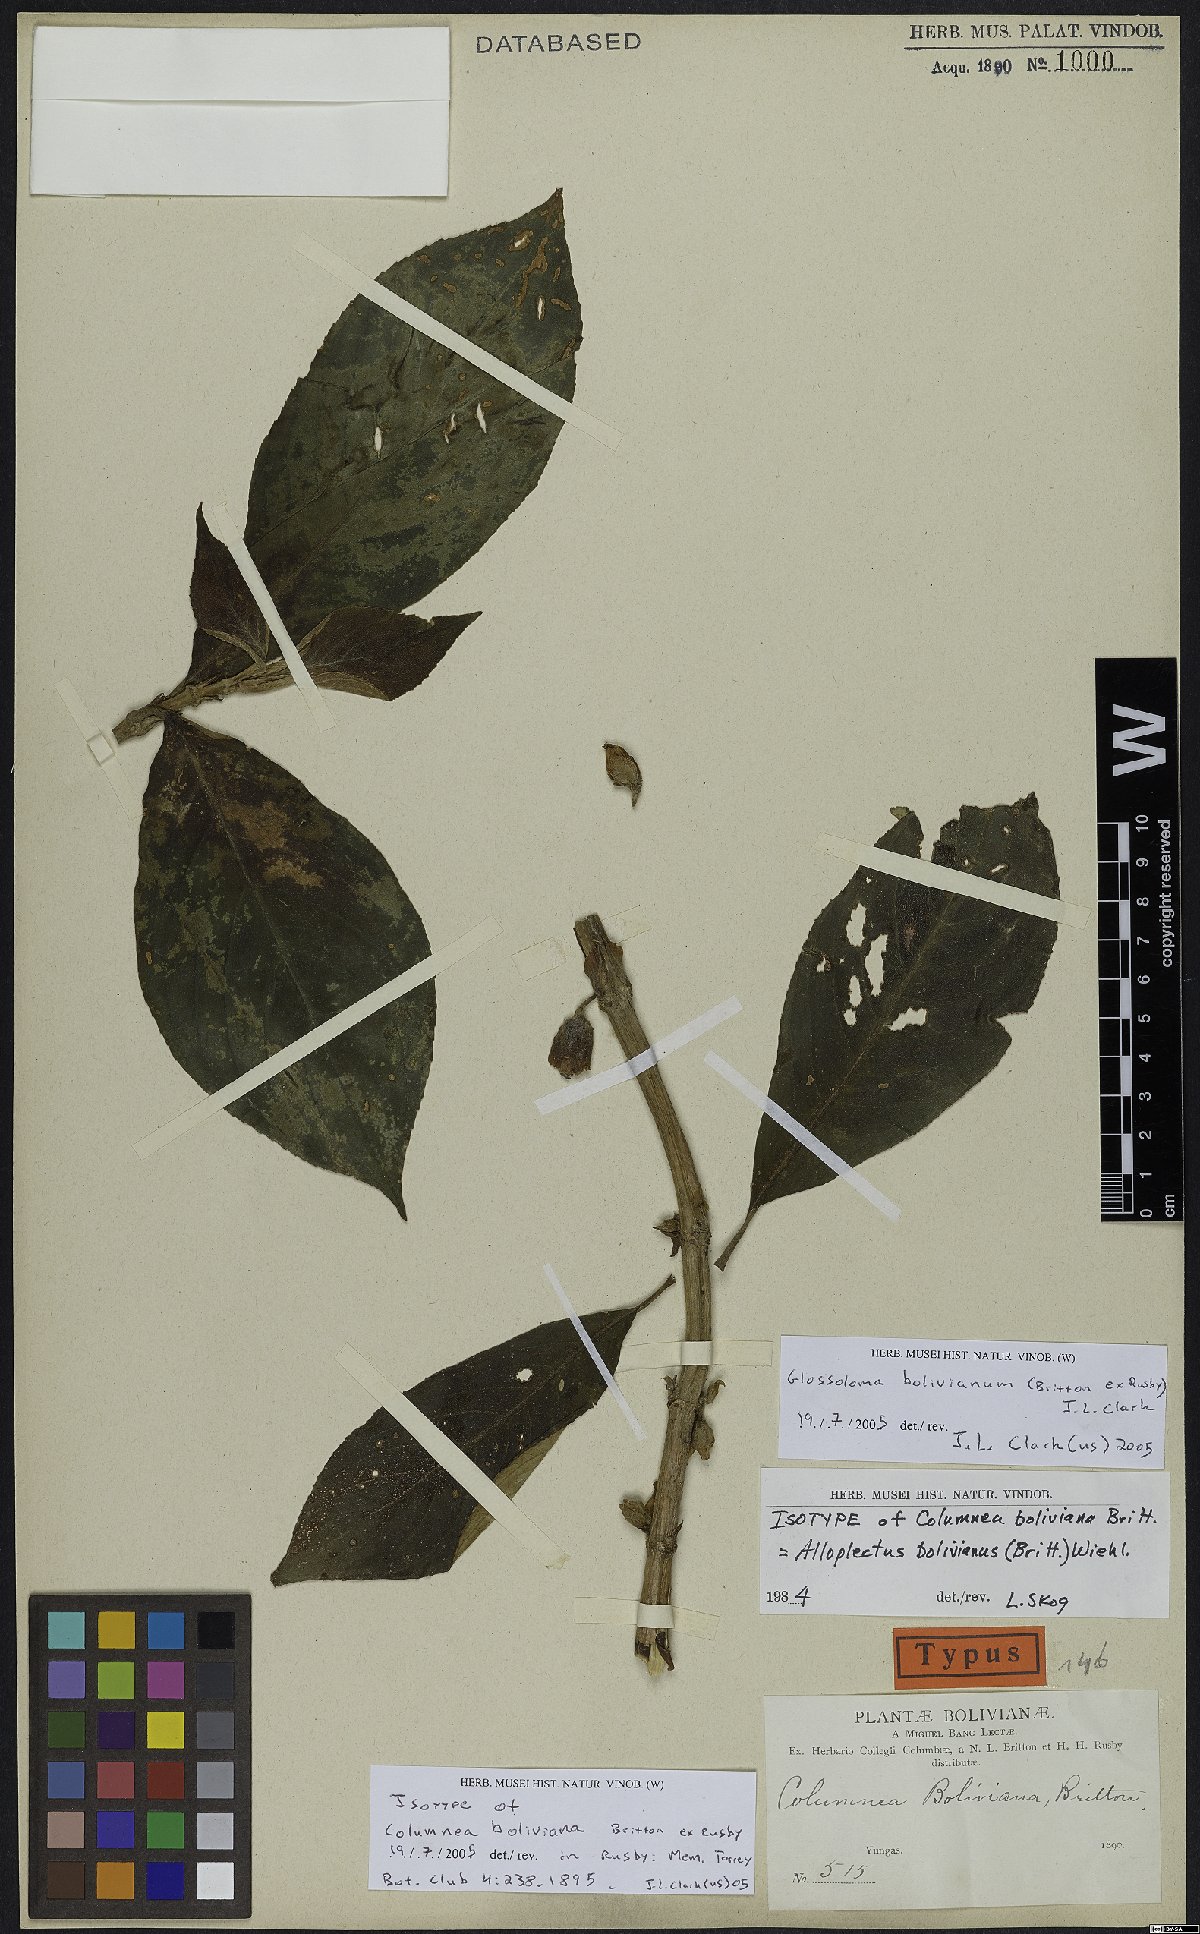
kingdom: Plantae
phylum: Tracheophyta
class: Magnoliopsida
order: Lamiales
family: Gesneriaceae
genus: Glossoloma
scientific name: Glossoloma bolivianum
